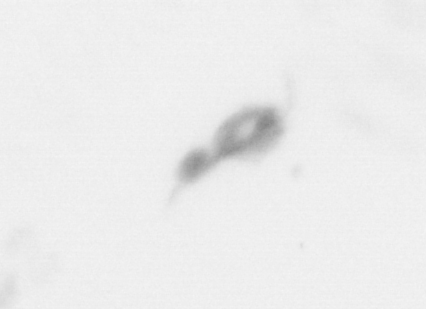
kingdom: Animalia
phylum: Arthropoda
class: Copepoda
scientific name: Copepoda
